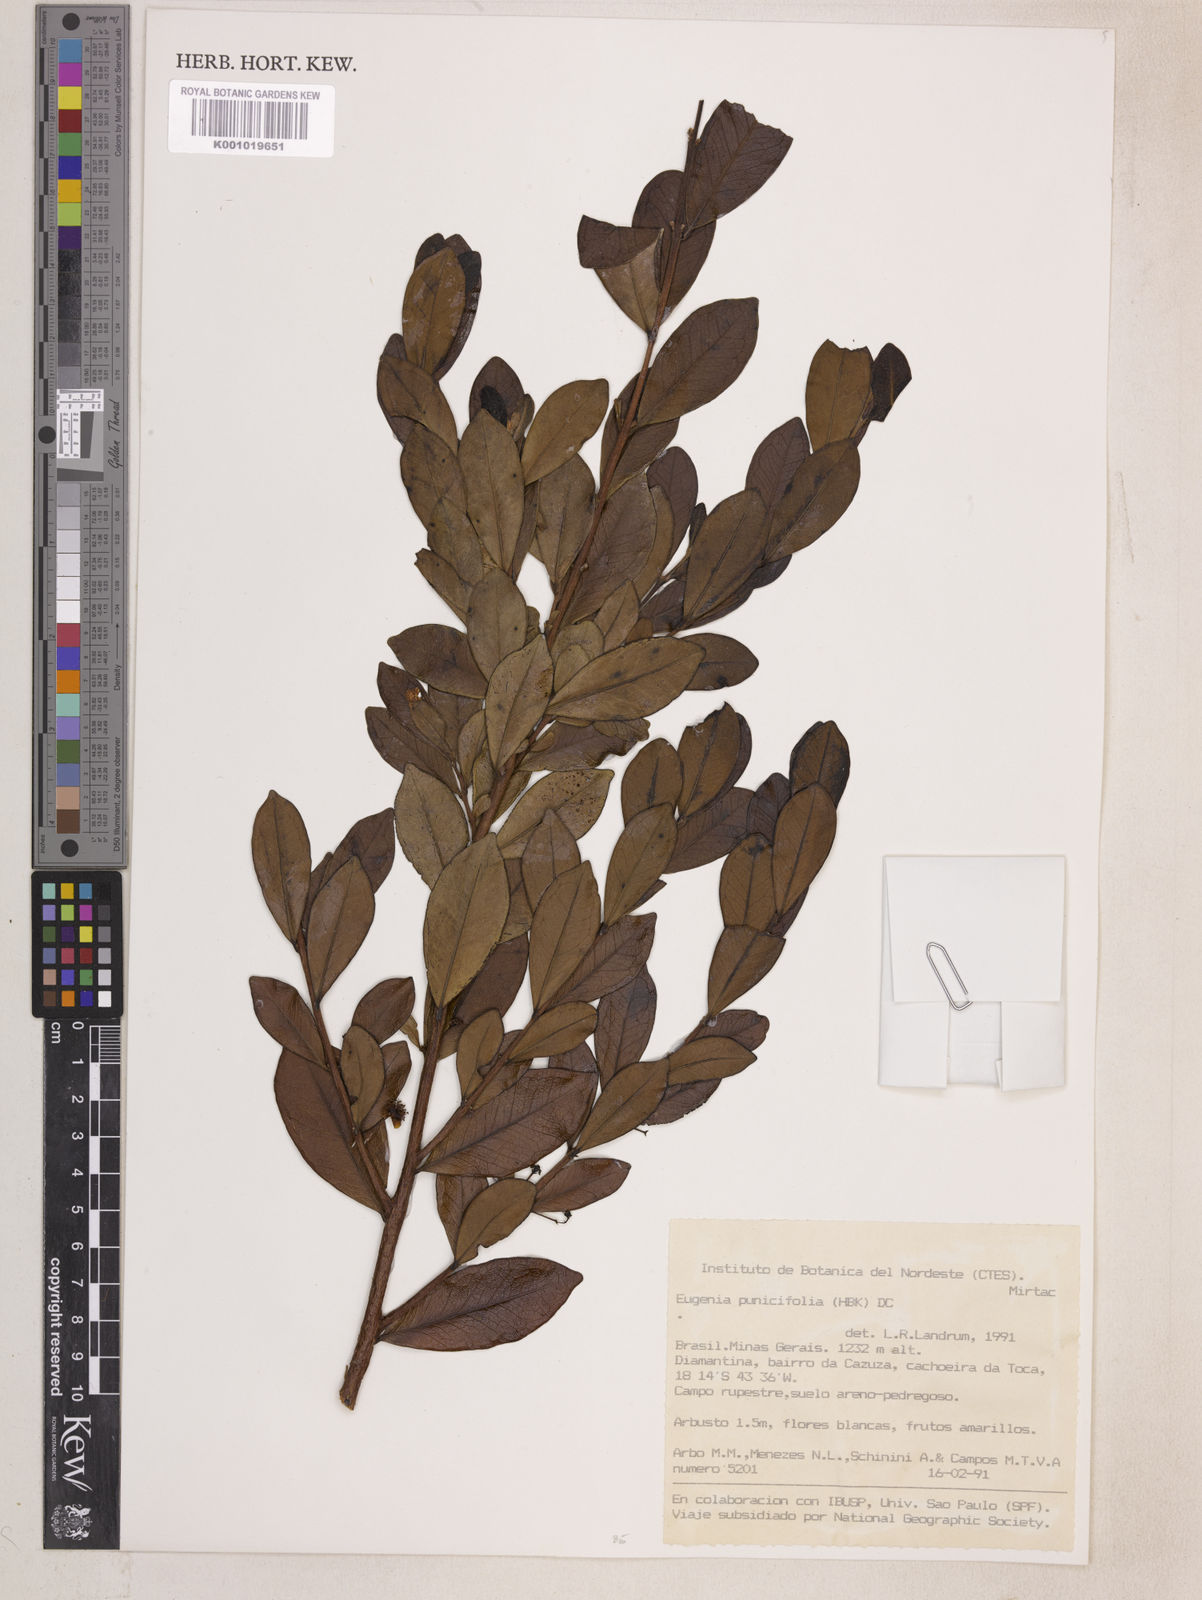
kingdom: Plantae
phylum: Tracheophyta
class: Magnoliopsida
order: Myrtales
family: Myrtaceae
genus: Eugenia
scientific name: Eugenia punicifolia
